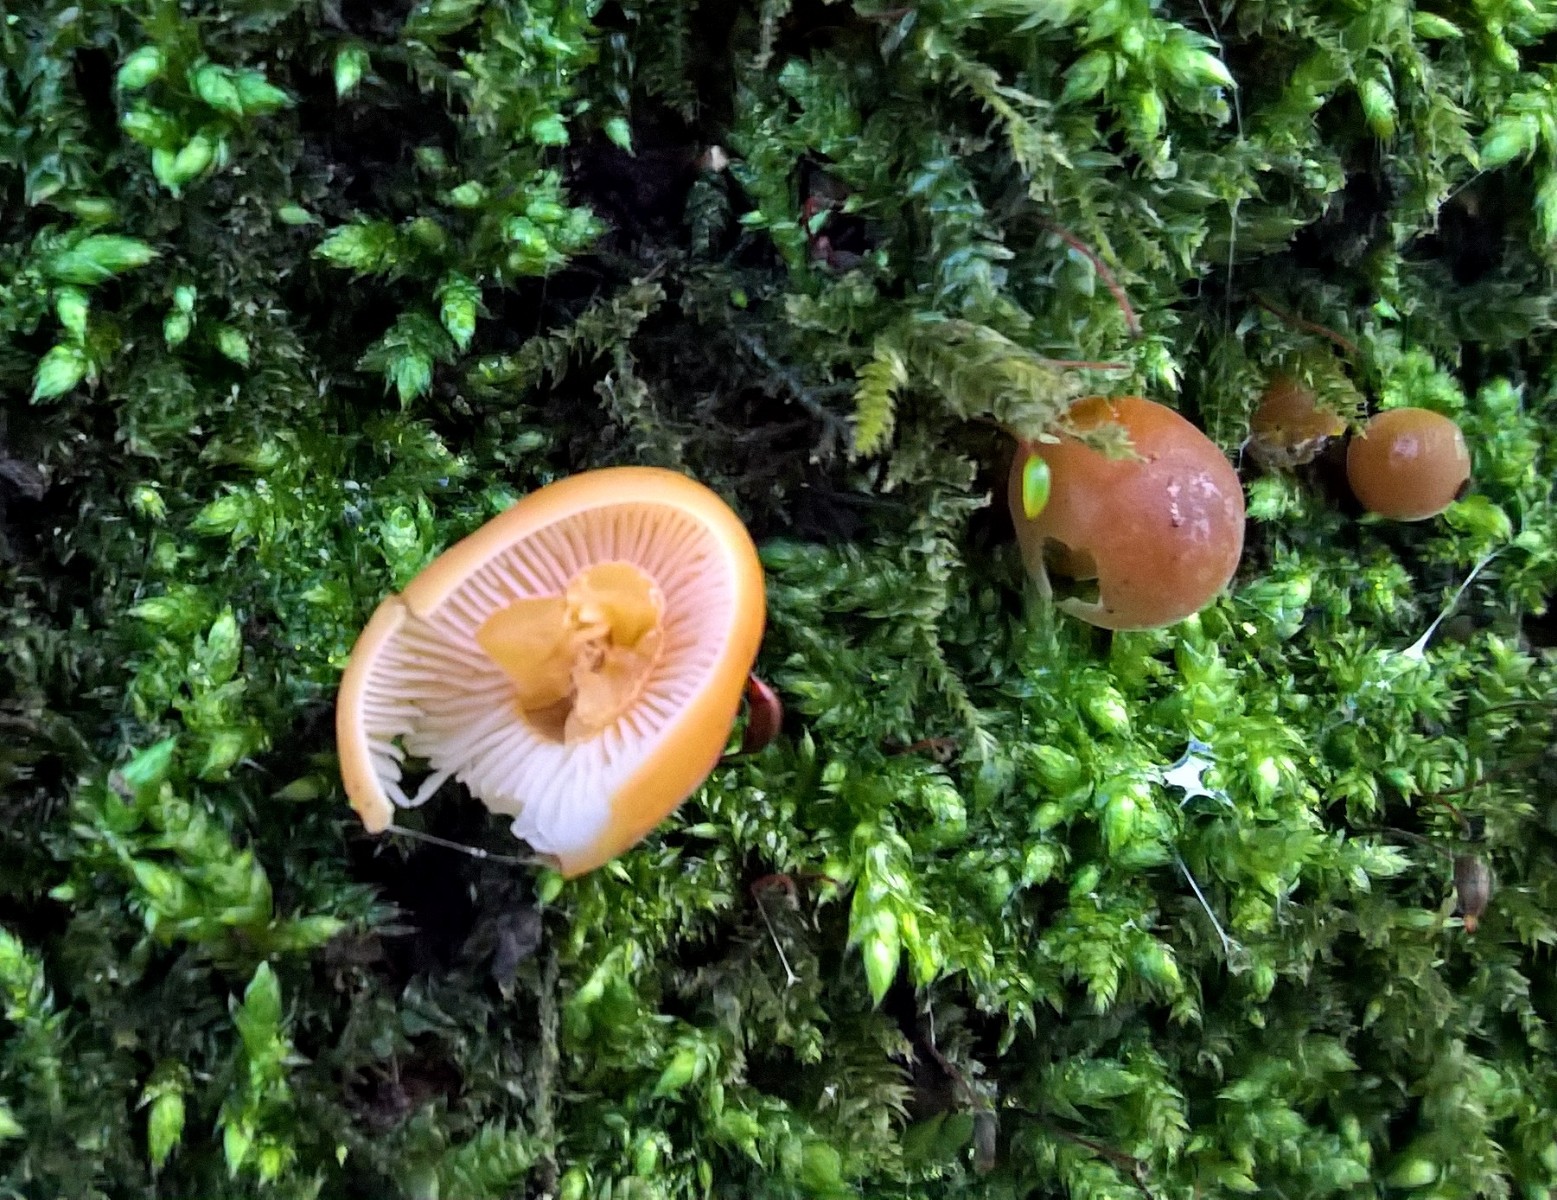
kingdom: Fungi
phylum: Basidiomycota
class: Agaricomycetes
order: Agaricales
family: Physalacriaceae
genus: Flammulina
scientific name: Flammulina velutipes
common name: gul fløjlsfod
